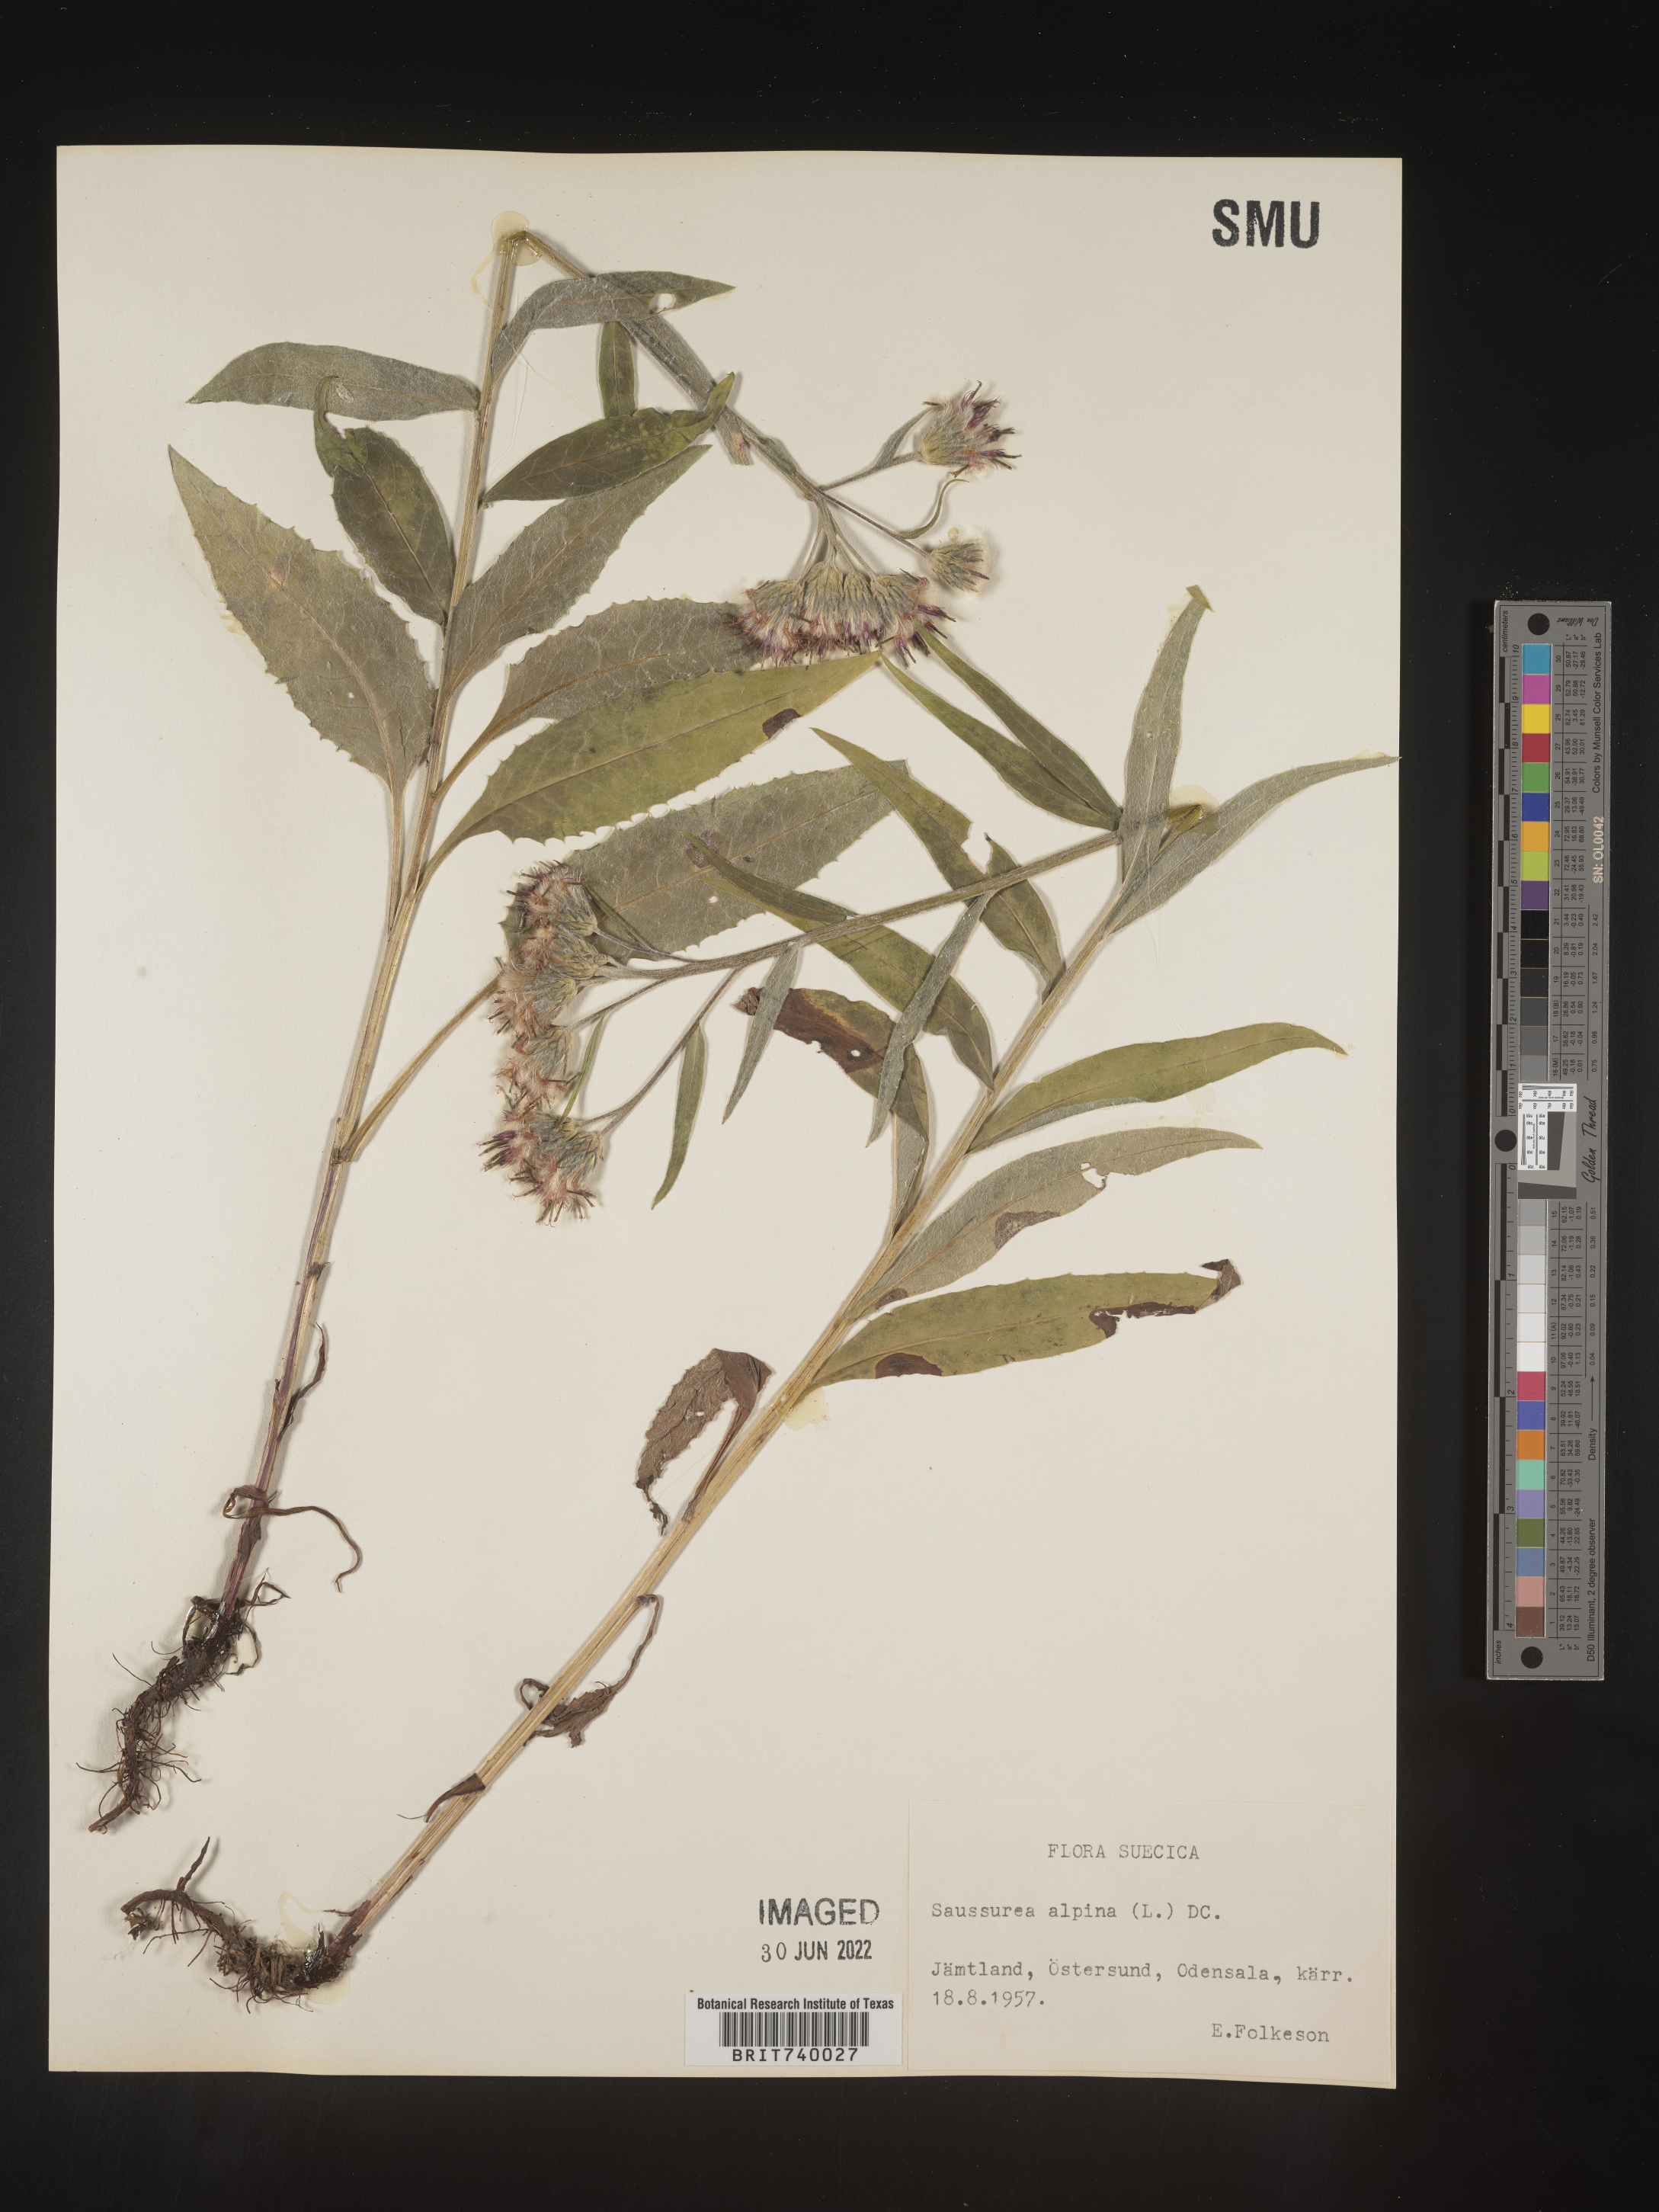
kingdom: Plantae
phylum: Tracheophyta
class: Magnoliopsida
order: Asterales
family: Asteraceae
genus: Saussurea
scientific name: Saussurea
